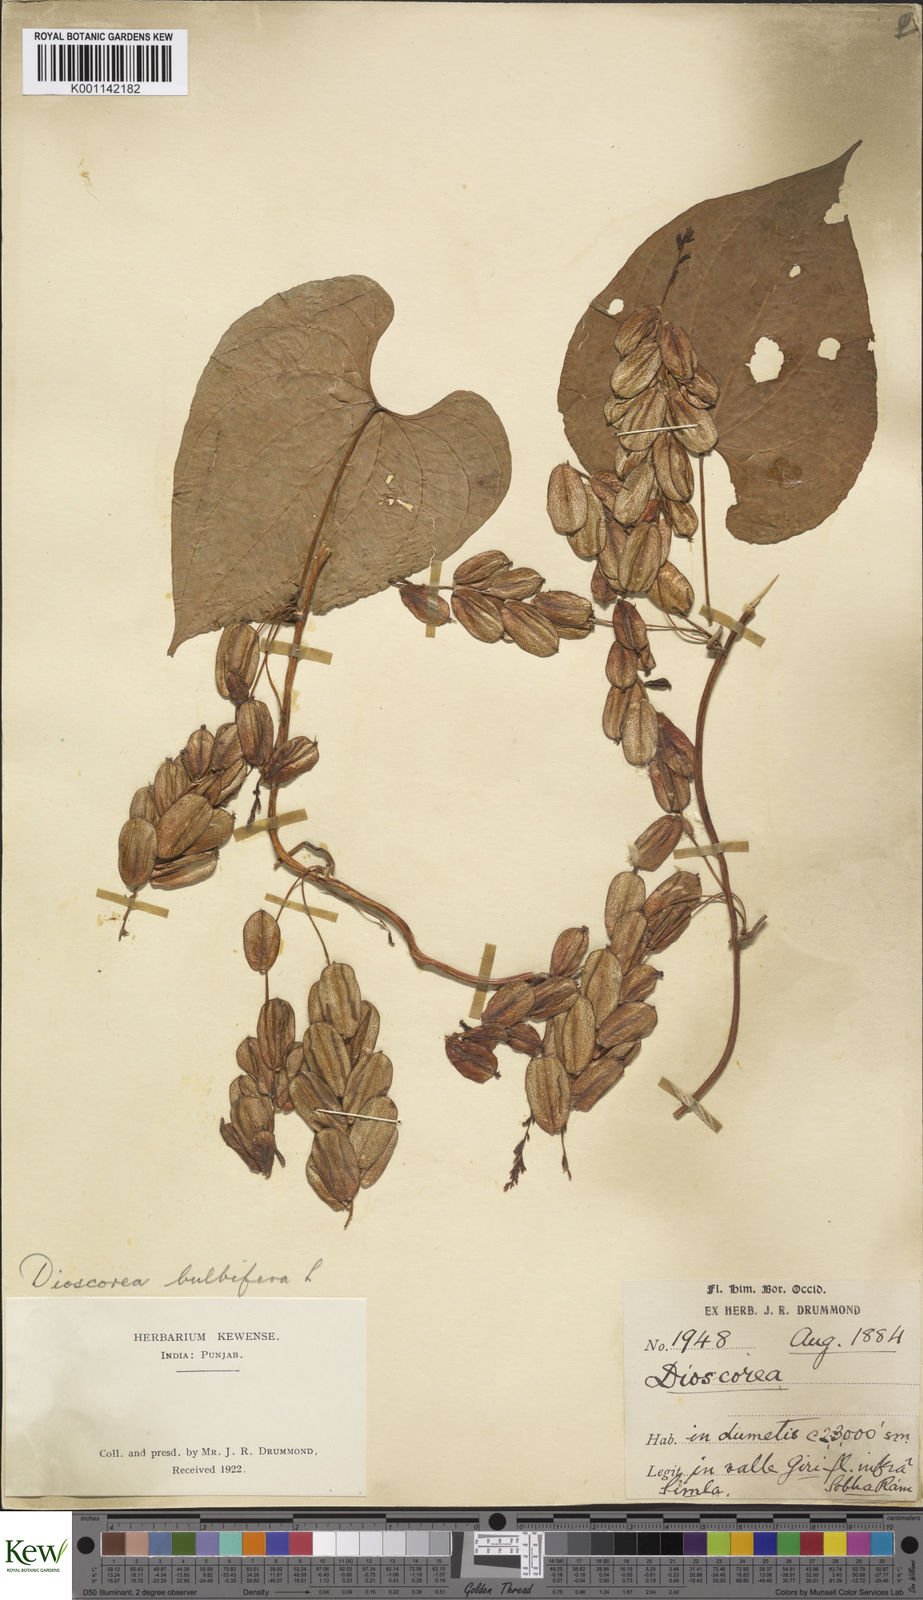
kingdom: Plantae
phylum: Tracheophyta
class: Liliopsida
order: Dioscoreales
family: Dioscoreaceae
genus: Dioscorea
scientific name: Dioscorea bulbifera
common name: Air yam
